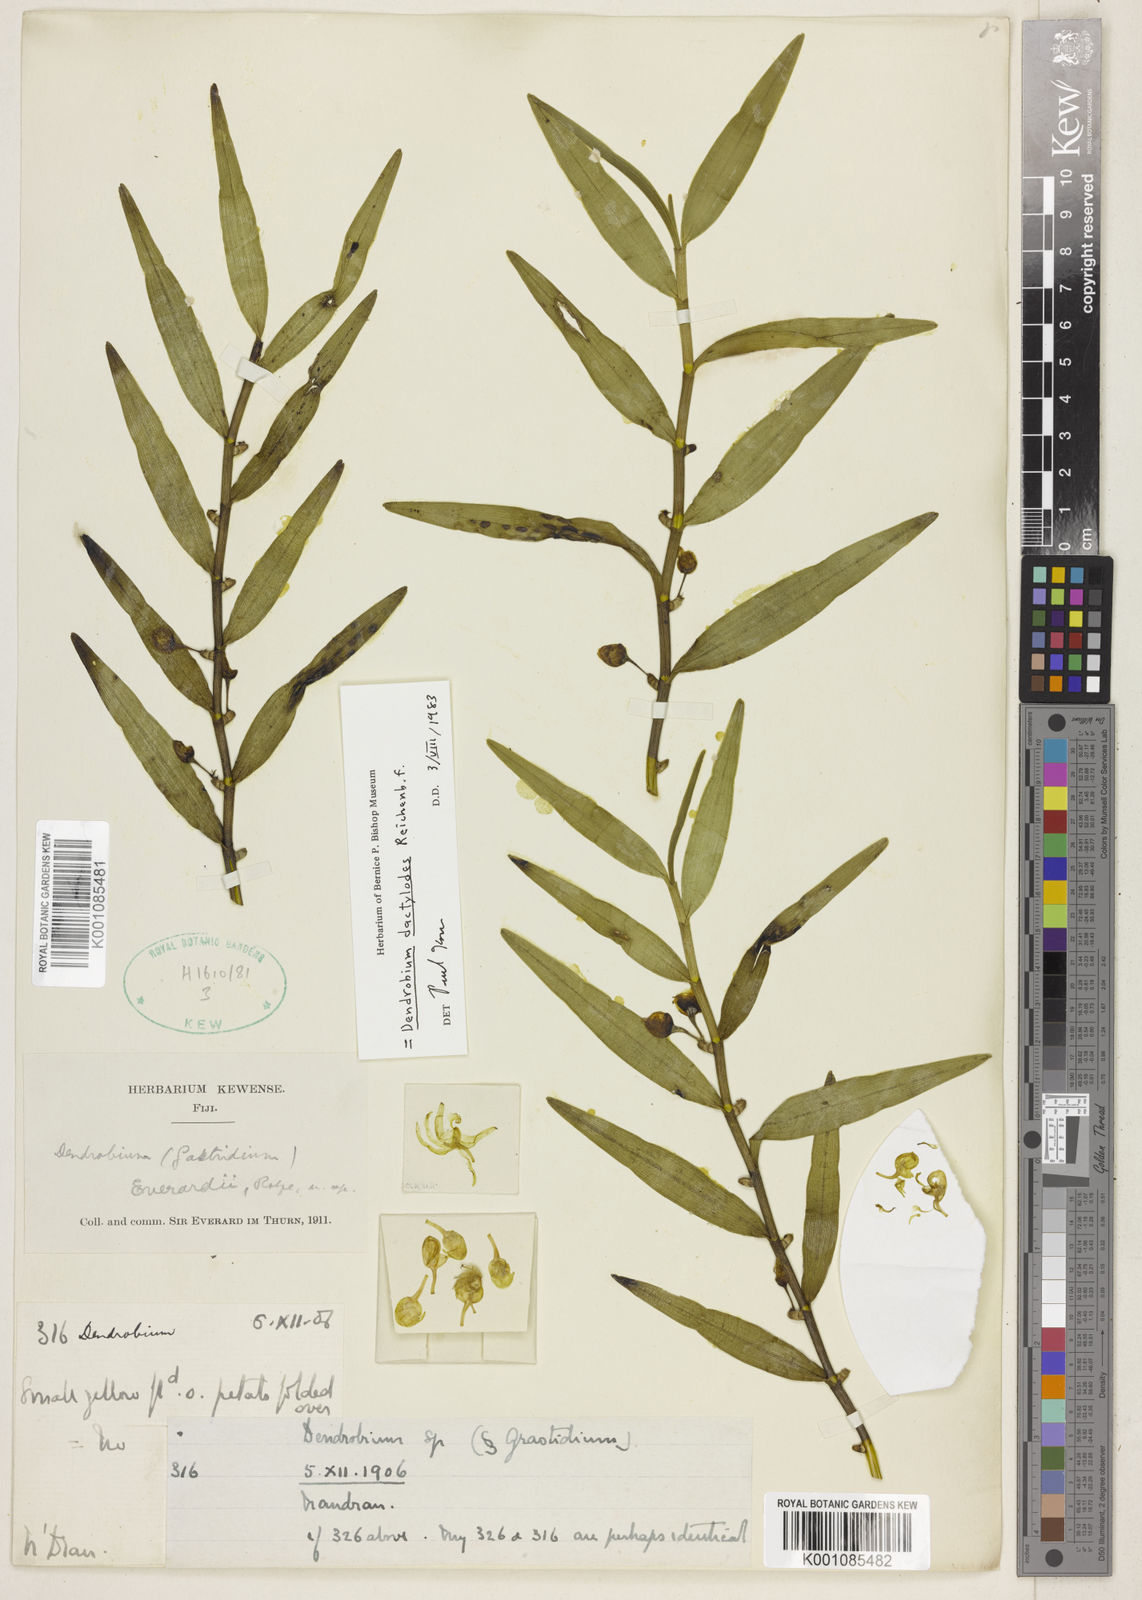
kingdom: Plantae
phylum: Tracheophyta
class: Liliopsida
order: Asparagales
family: Orchidaceae
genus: Dendrobium
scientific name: Dendrobium dactylodes
